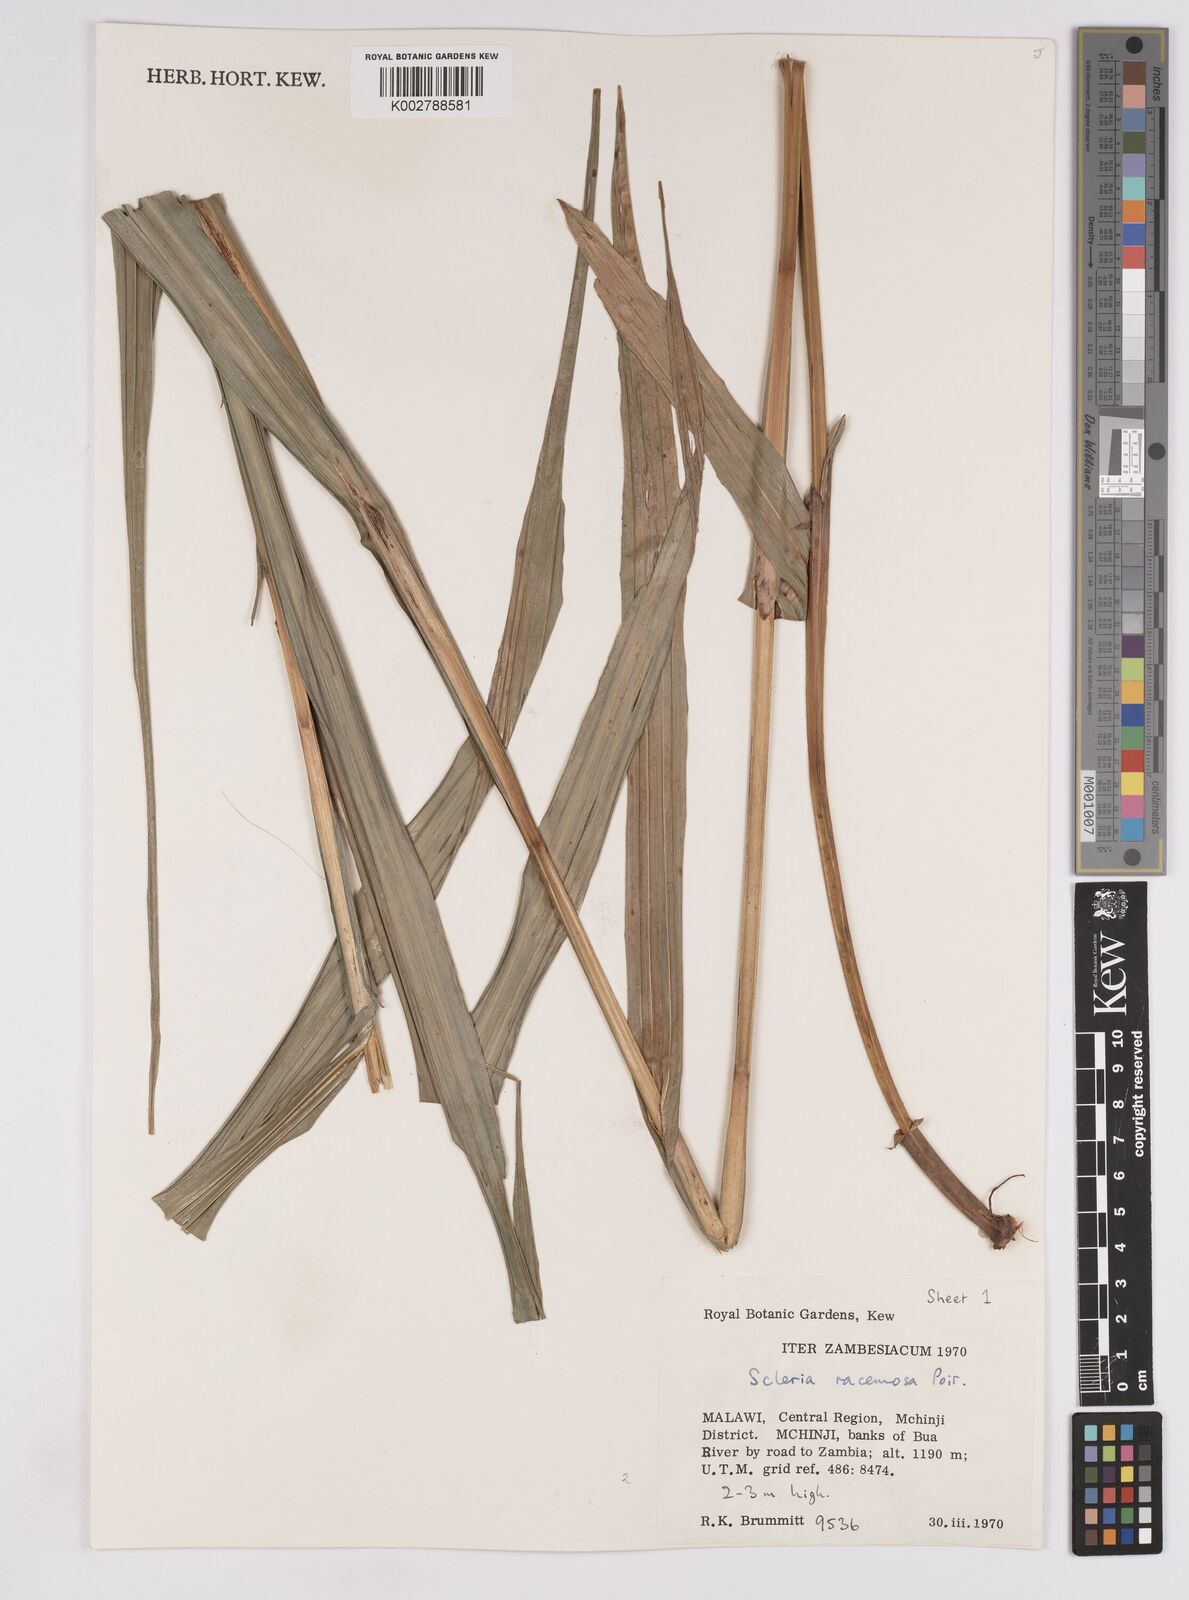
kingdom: Plantae
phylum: Tracheophyta
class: Liliopsida
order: Poales
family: Cyperaceae
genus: Scleria
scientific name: Scleria racemosa
